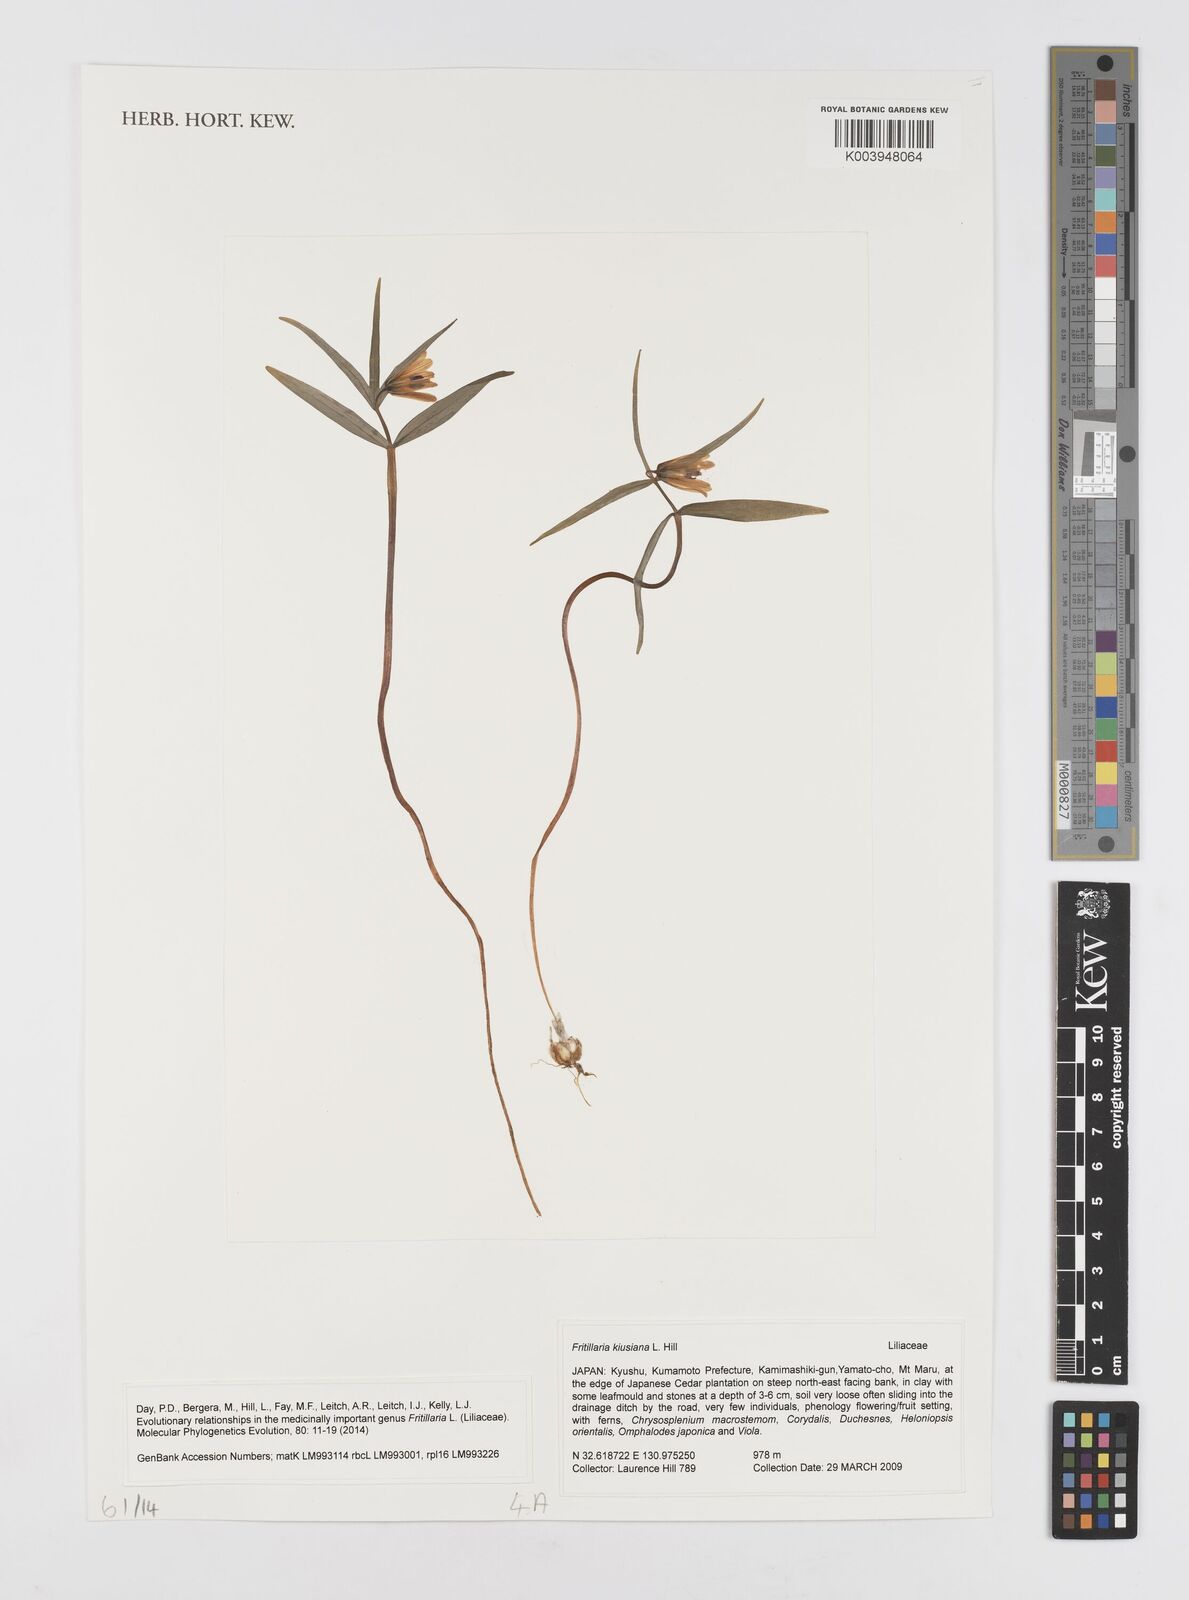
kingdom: Plantae
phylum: Tracheophyta
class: Liliopsida
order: Liliales
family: Liliaceae
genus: Fritillaria
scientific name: Fritillaria kiusiana
